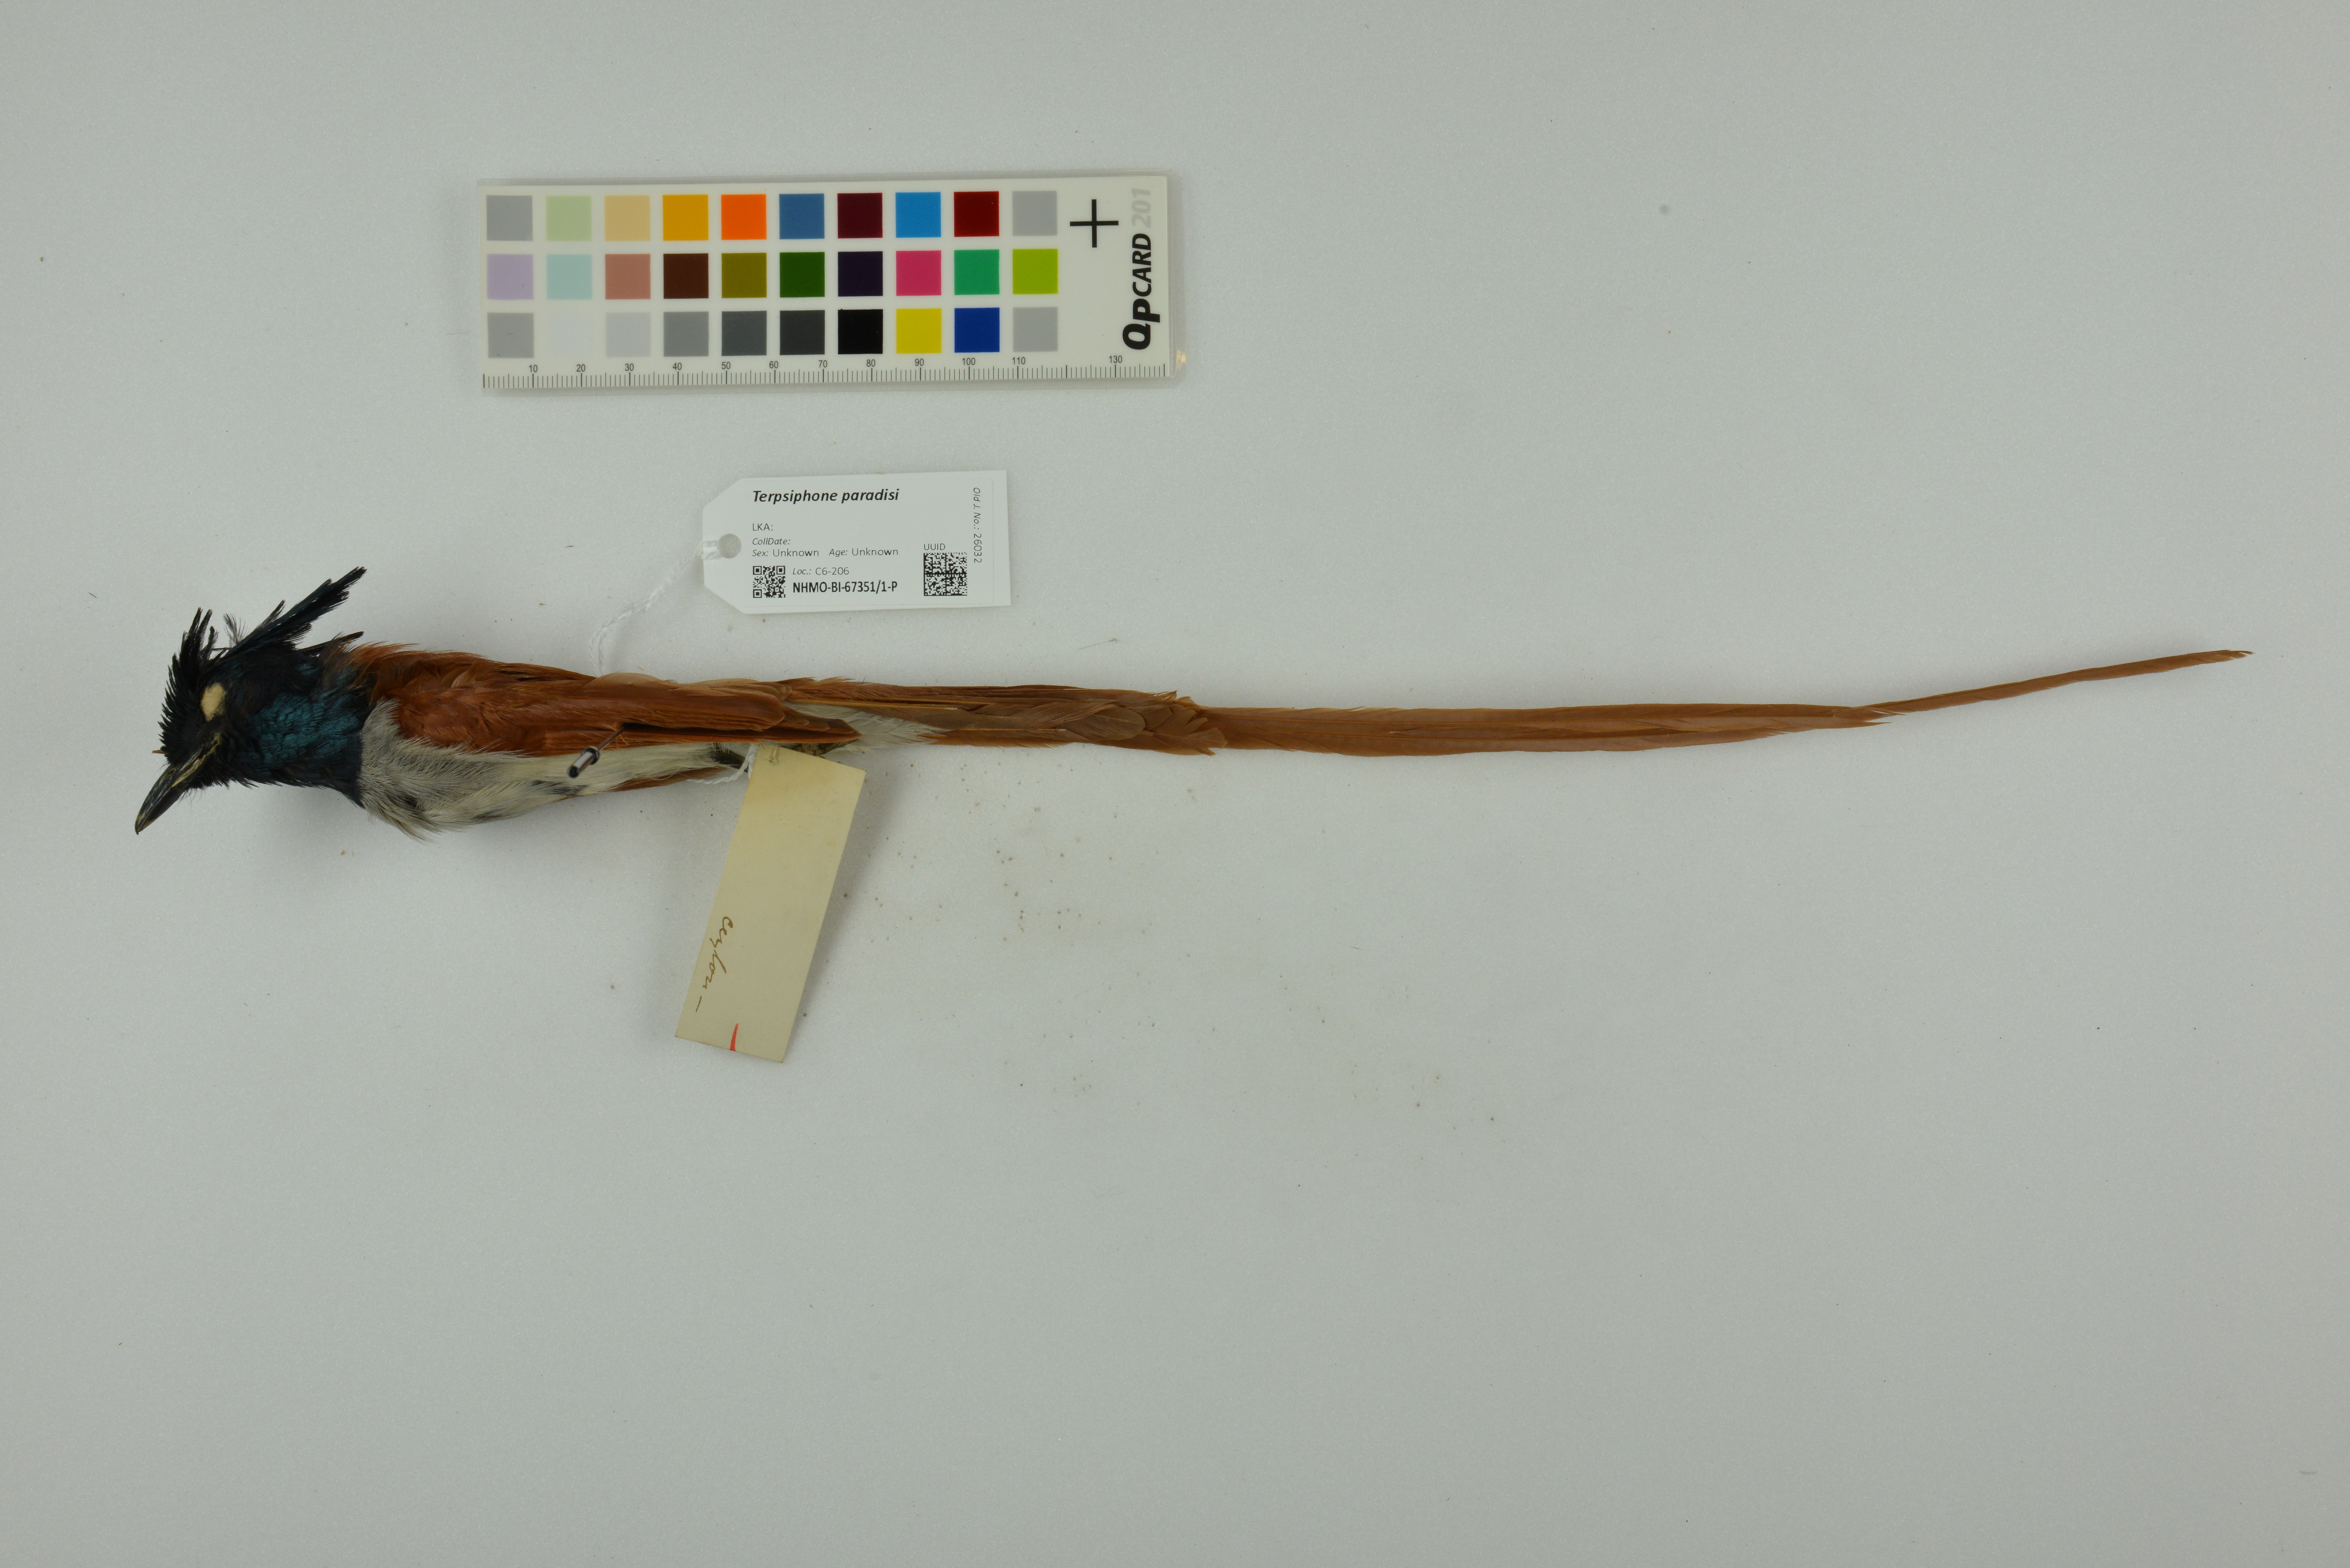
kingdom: Animalia
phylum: Chordata
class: Aves
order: Passeriformes
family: Monarchidae
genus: Terpsiphone
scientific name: Terpsiphone paradisi
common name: Indian paradise flycatcher
